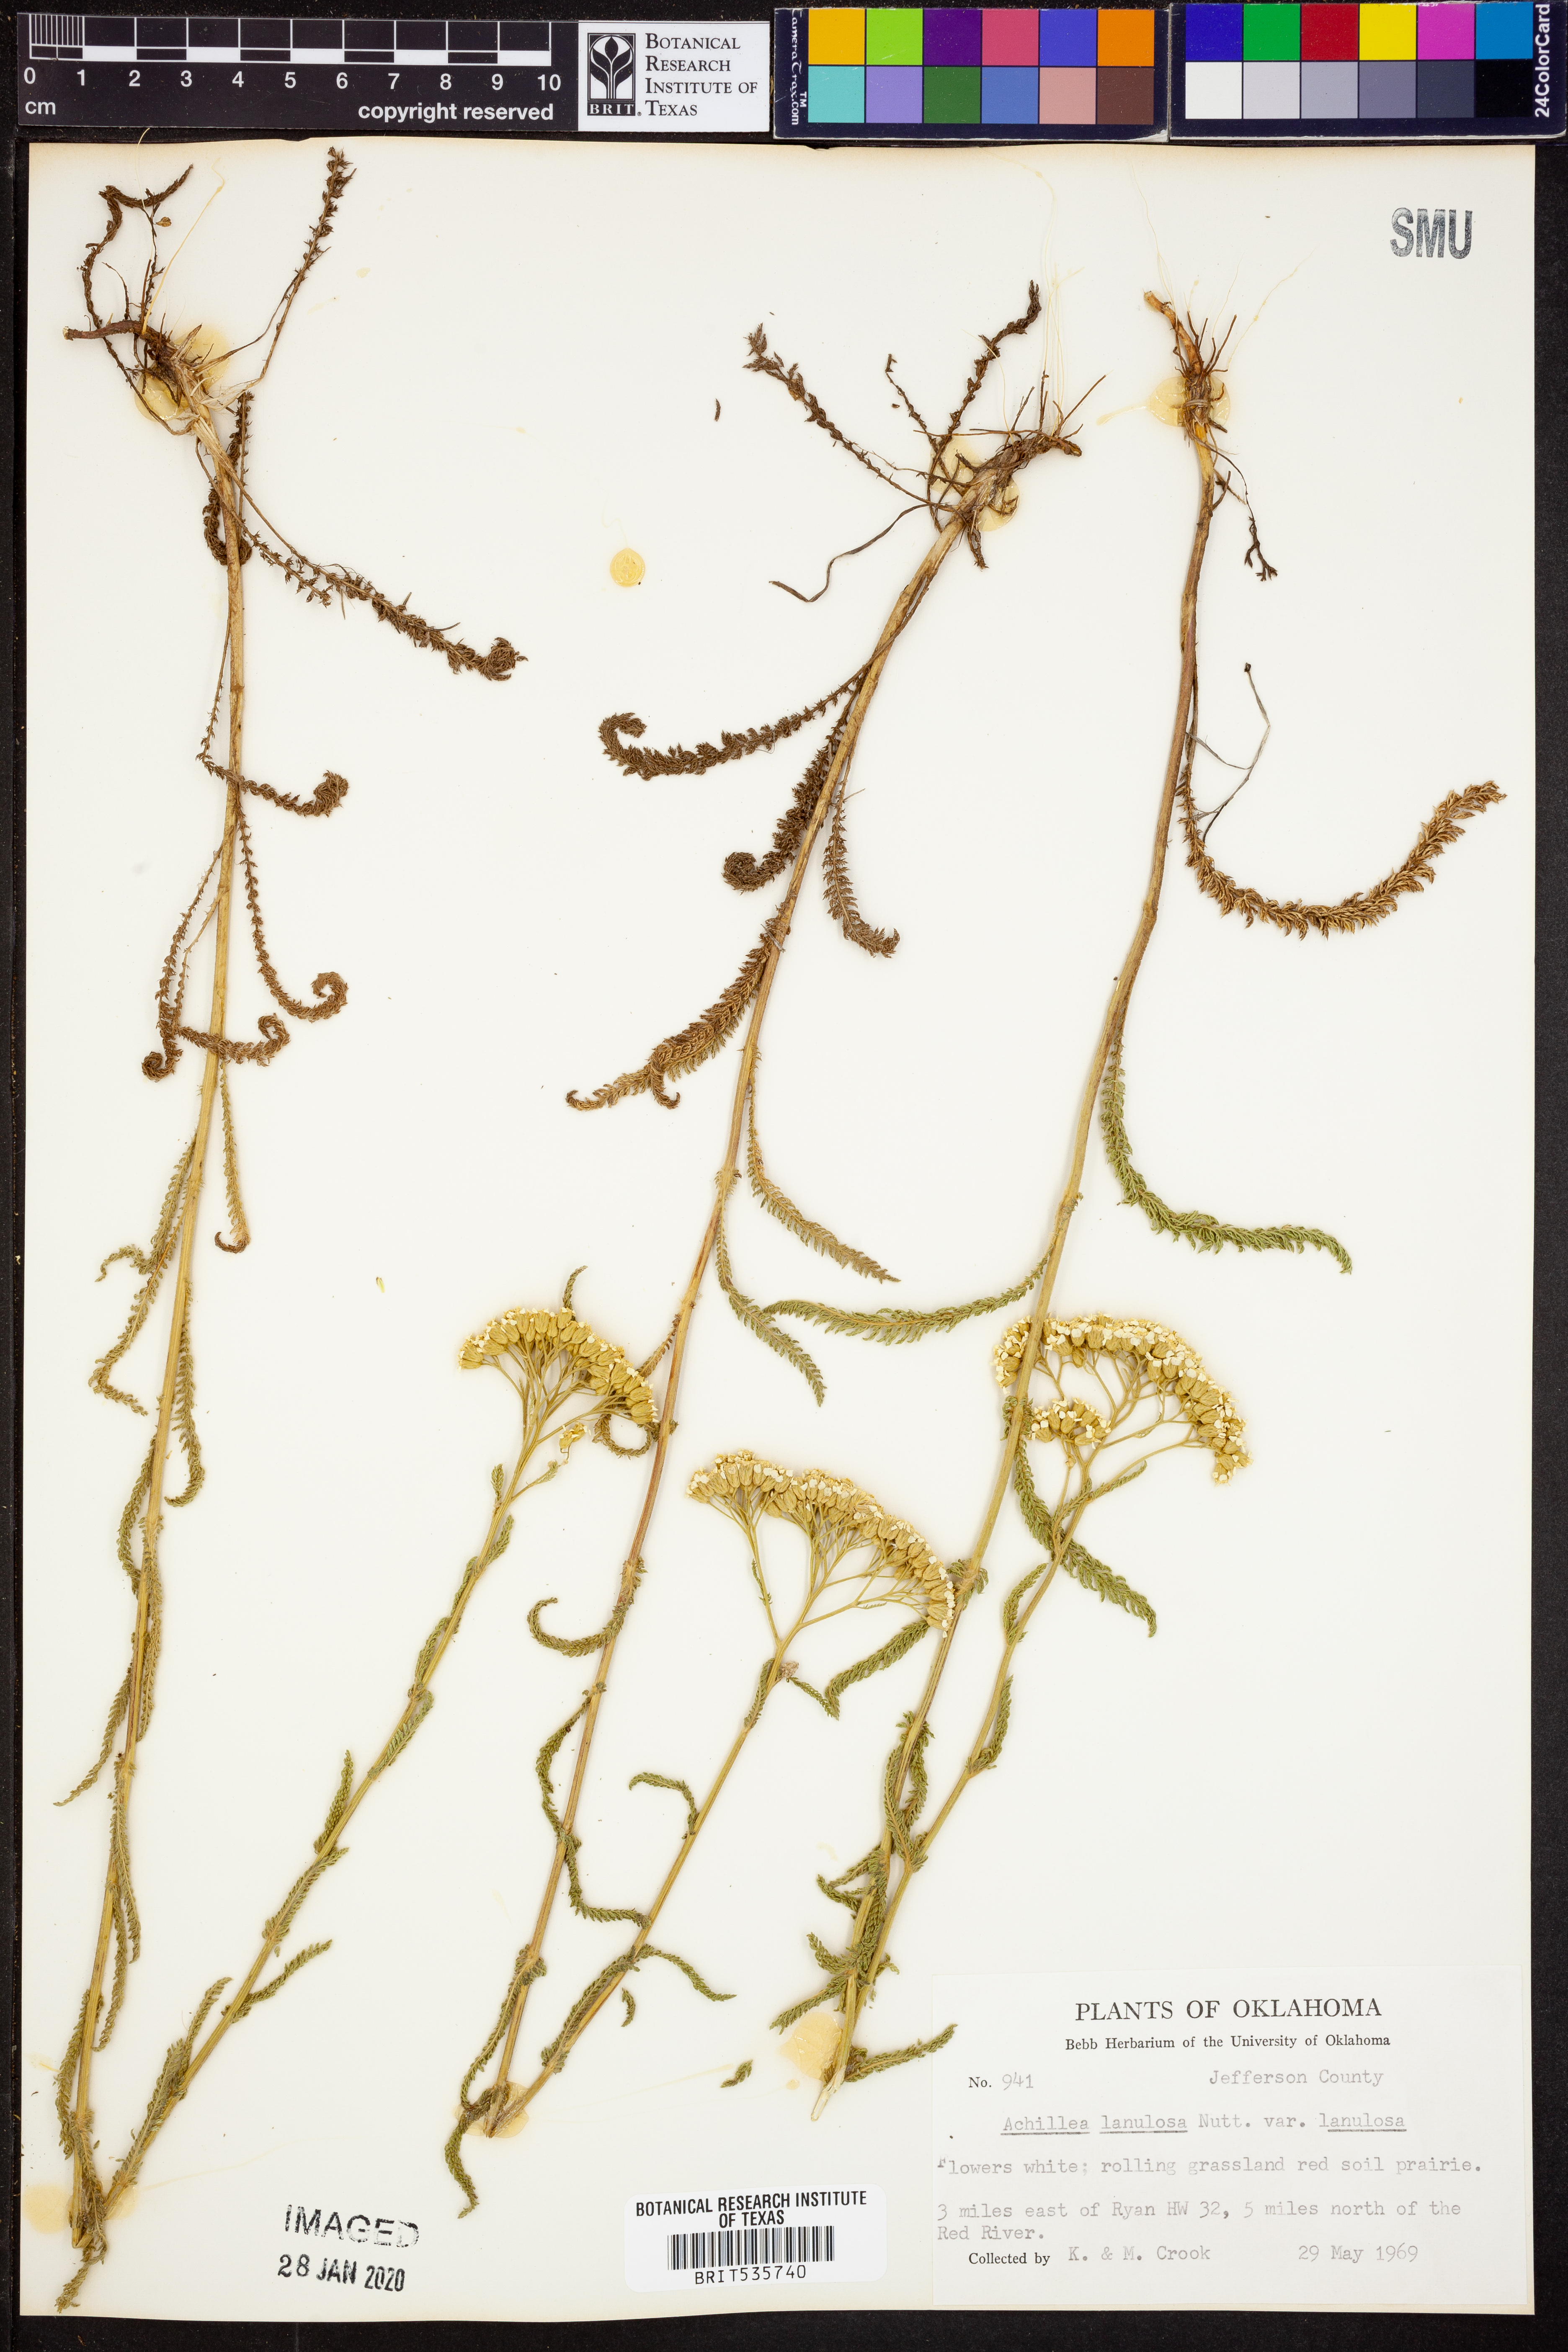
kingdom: Plantae
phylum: Tracheophyta
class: Magnoliopsida
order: Asterales
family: Asteraceae
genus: Achillea
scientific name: Achillea millefolium
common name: Yarrow
